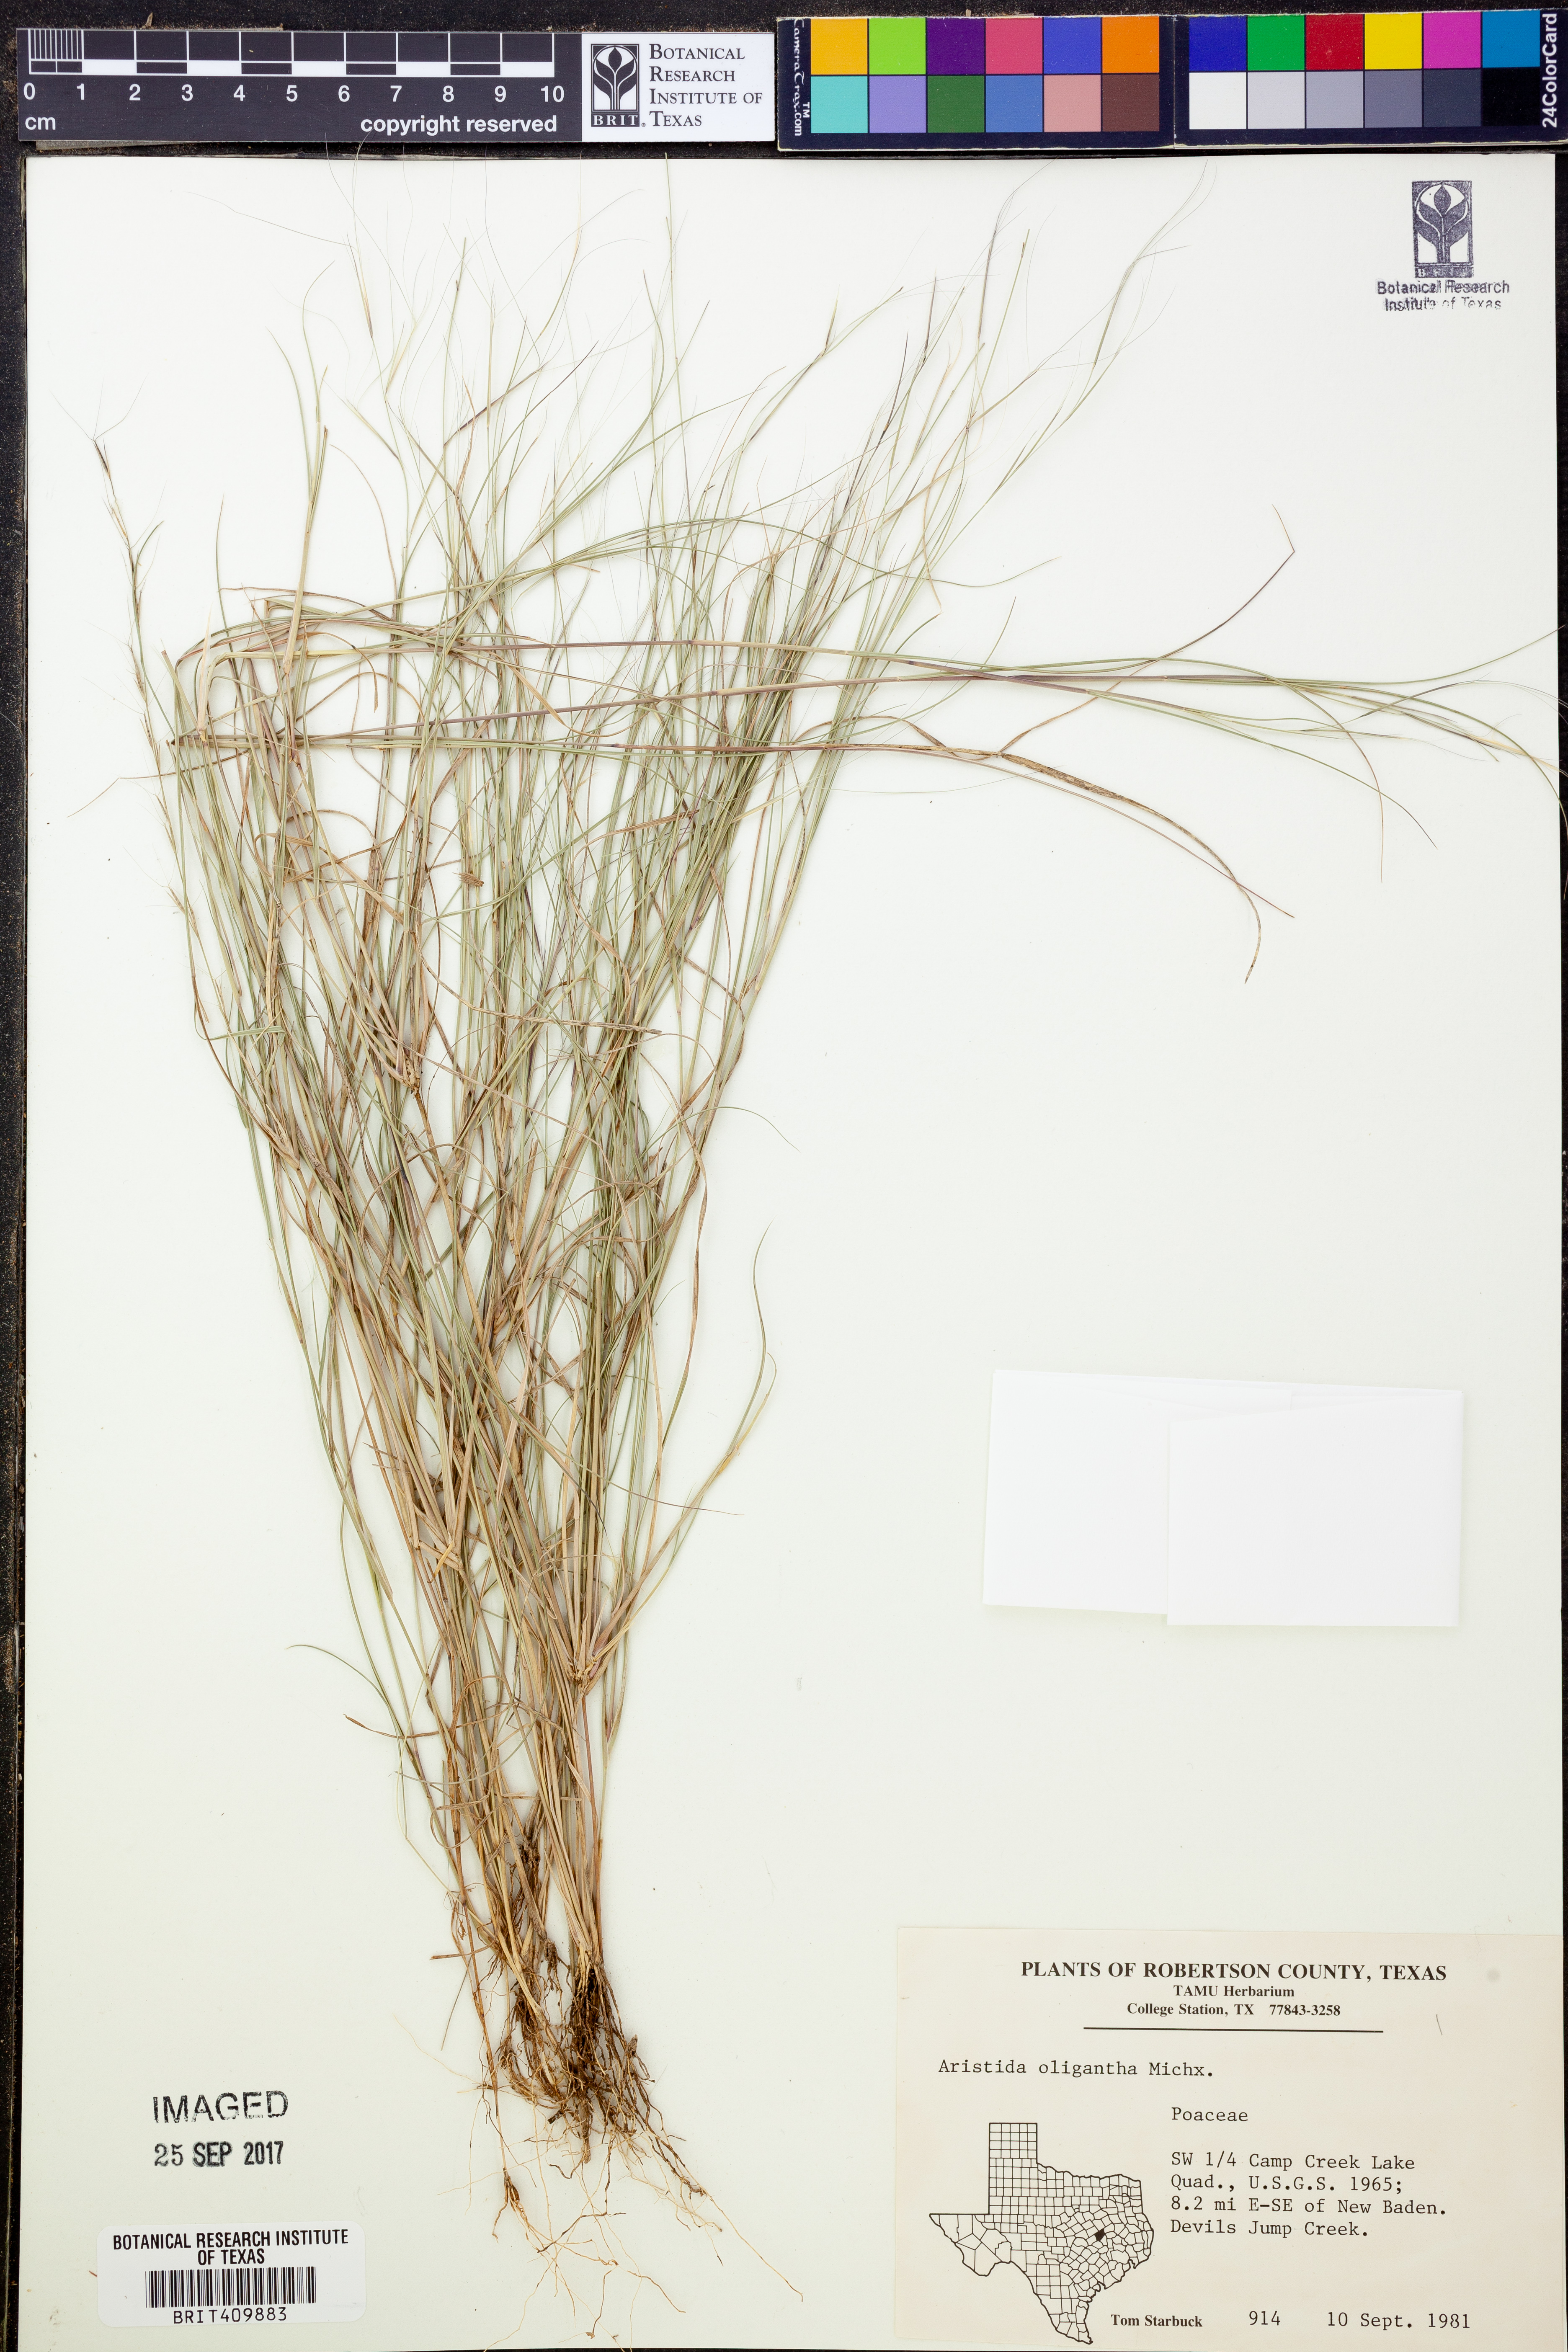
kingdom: Plantae
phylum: Tracheophyta
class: Liliopsida
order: Poales
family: Poaceae
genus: Aristida
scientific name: Aristida oligantha
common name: Few-flowered aristida
